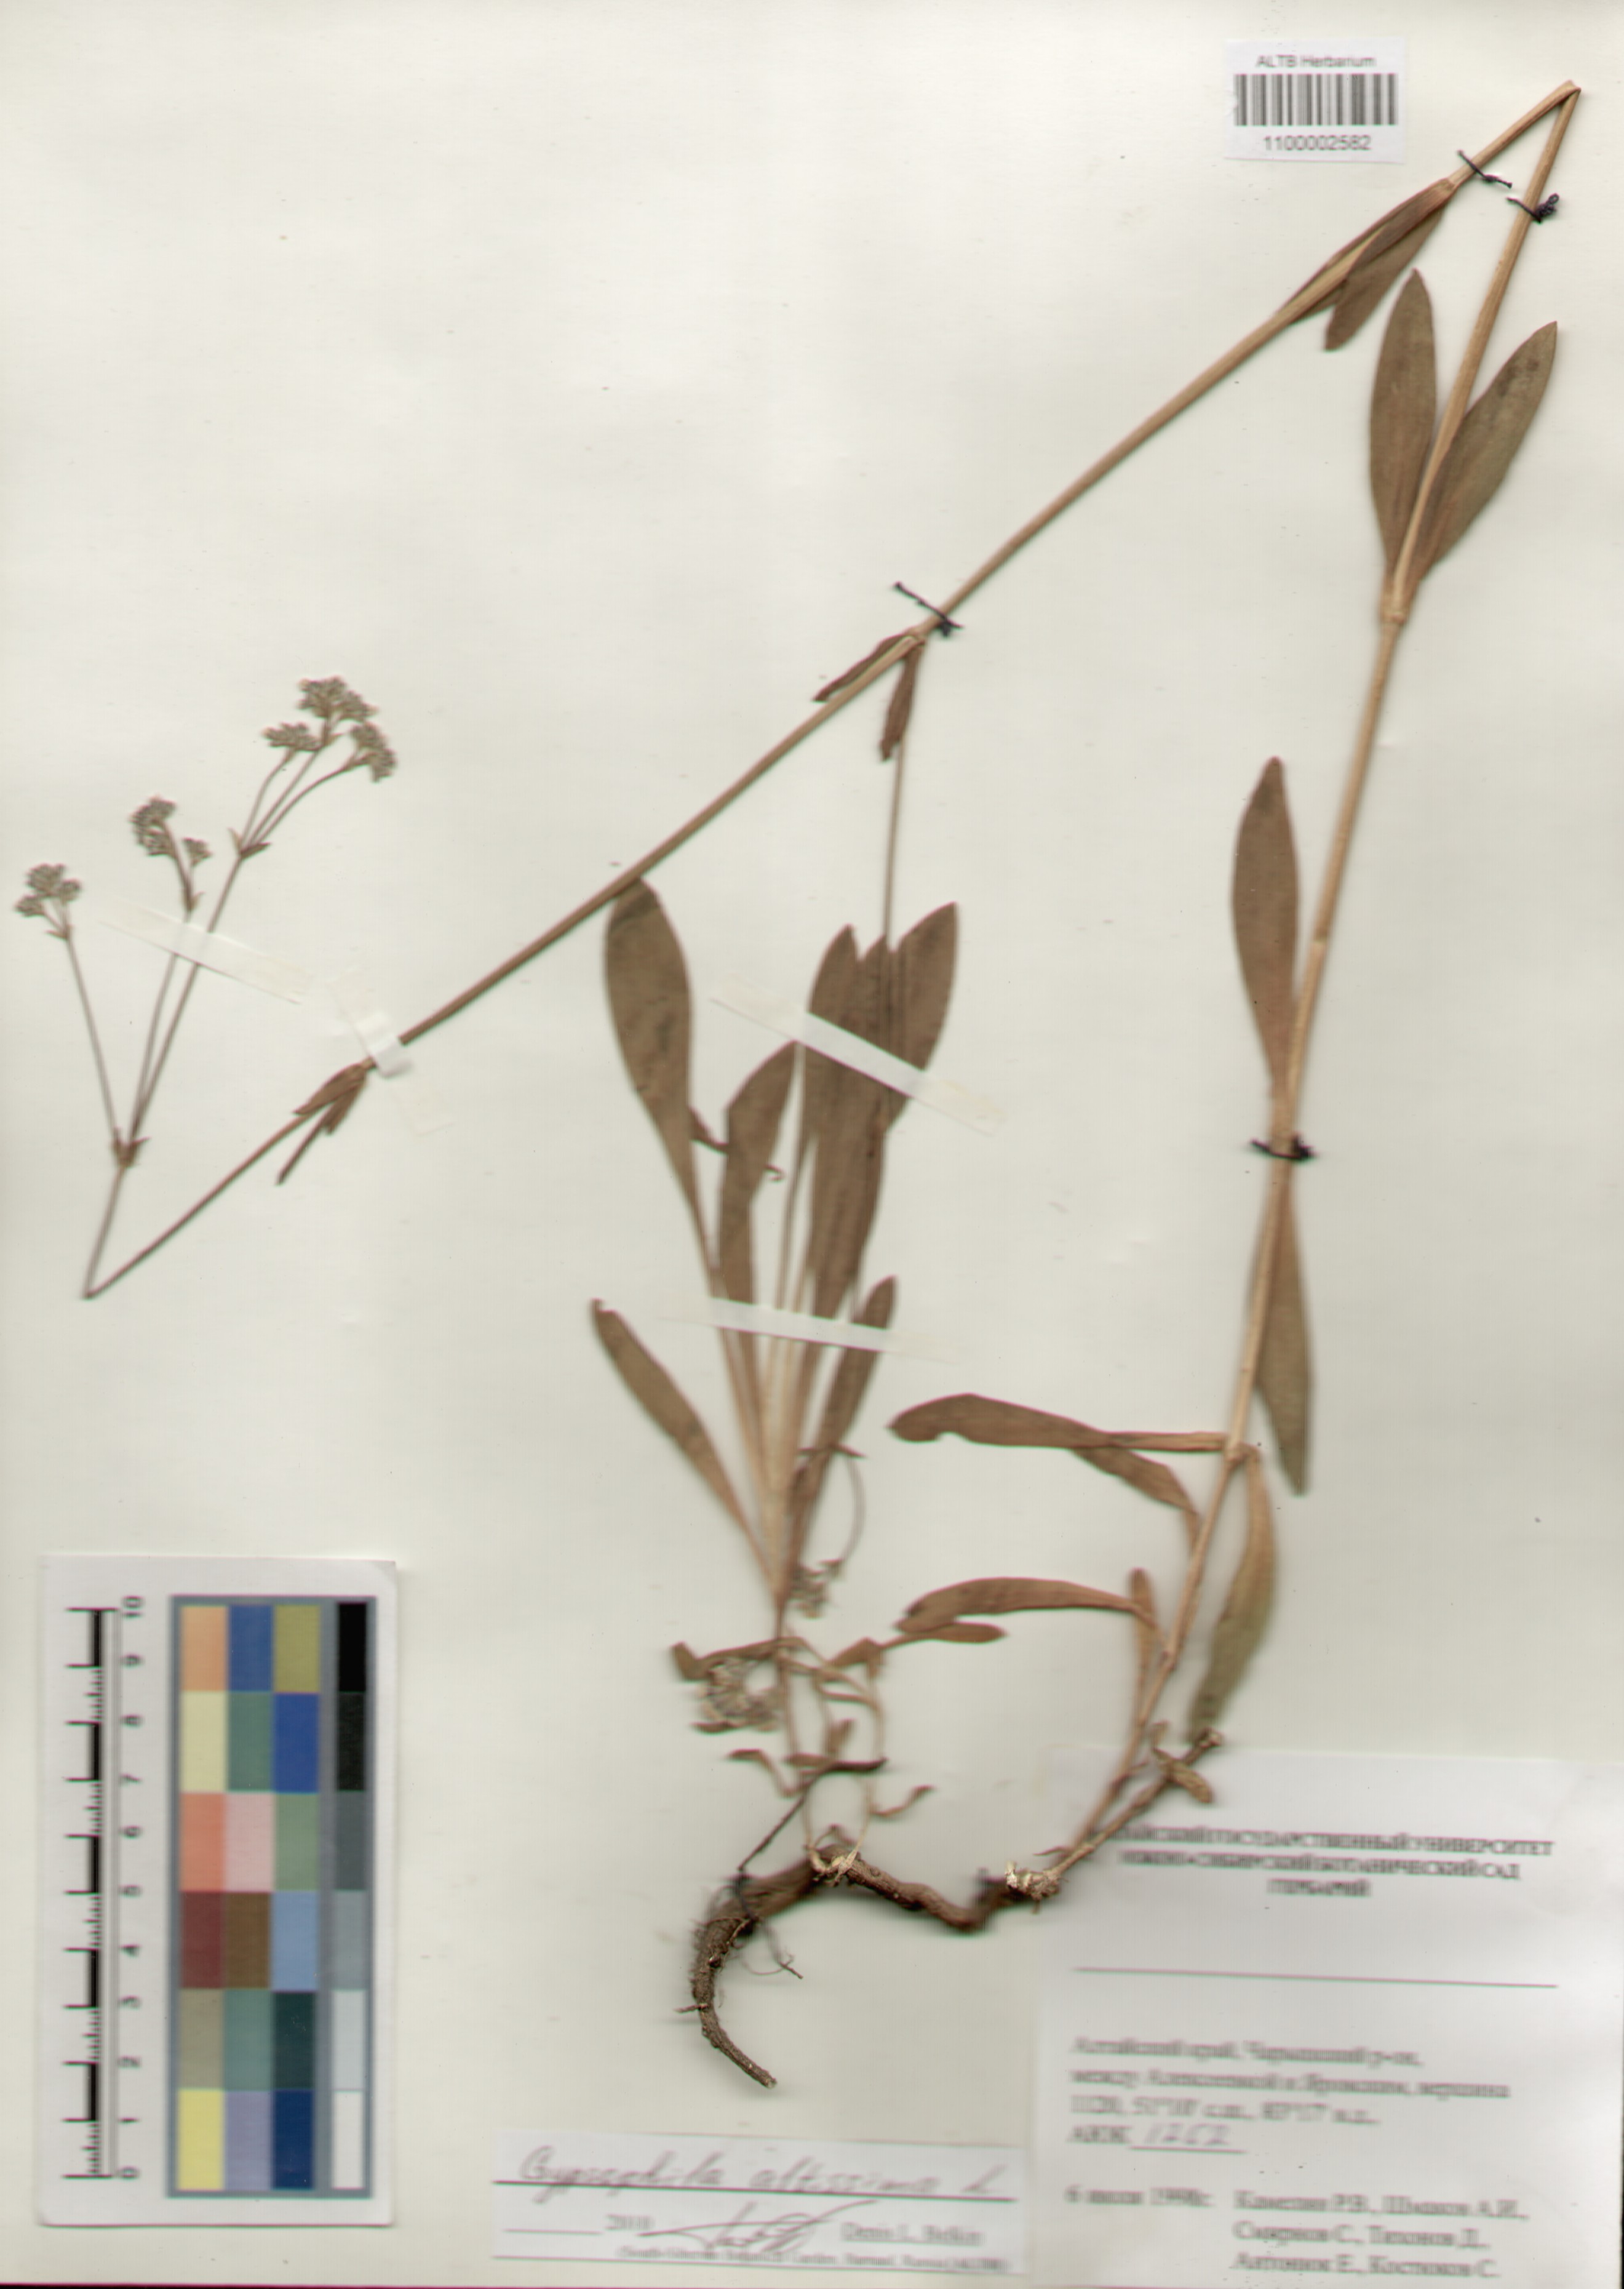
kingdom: Plantae
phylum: Tracheophyta
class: Magnoliopsida
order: Caryophyllales
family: Caryophyllaceae
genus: Gypsophila
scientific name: Gypsophila altissima
